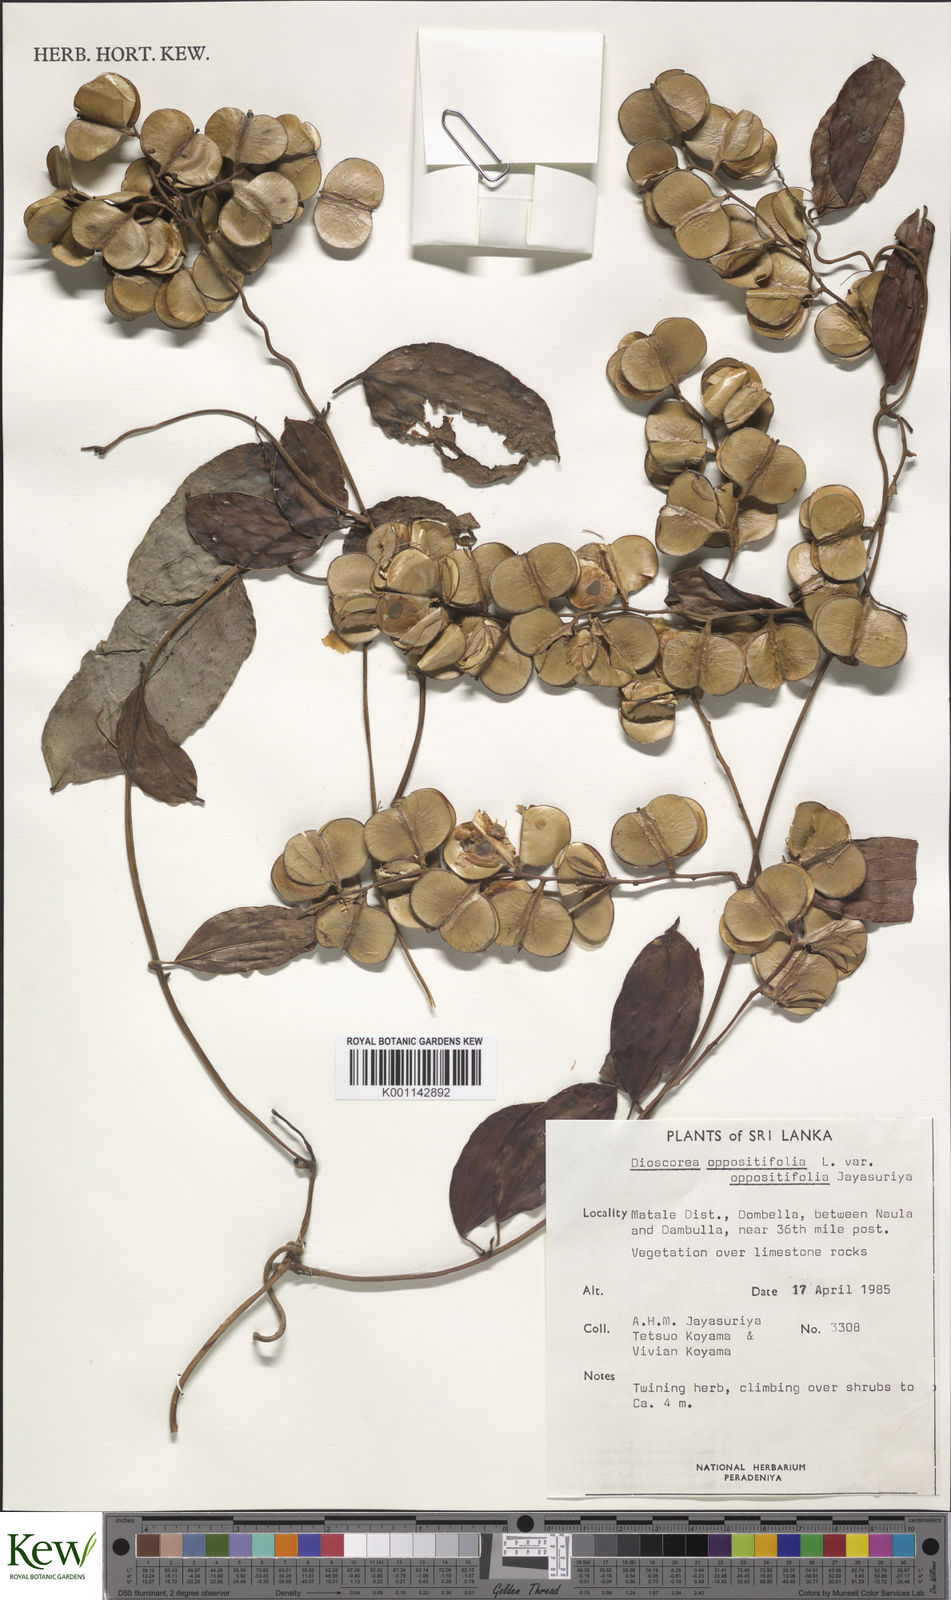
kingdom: Plantae
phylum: Tracheophyta
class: Liliopsida
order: Dioscoreales
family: Dioscoreaceae
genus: Dioscorea
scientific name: Dioscorea oppositifolia
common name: Chinese yam
